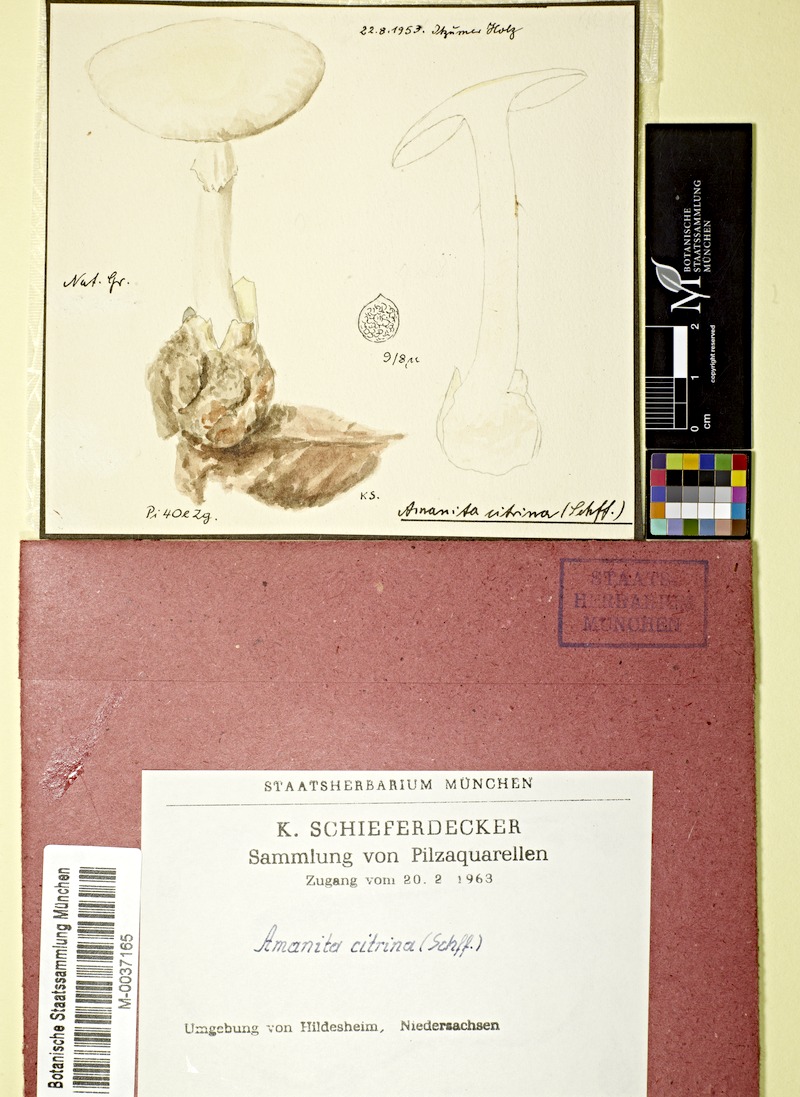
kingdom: Fungi
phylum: Basidiomycota
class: Agaricomycetes
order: Agaricales
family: Amanitaceae
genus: Amanita
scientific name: Amanita citrina
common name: False death-cap
